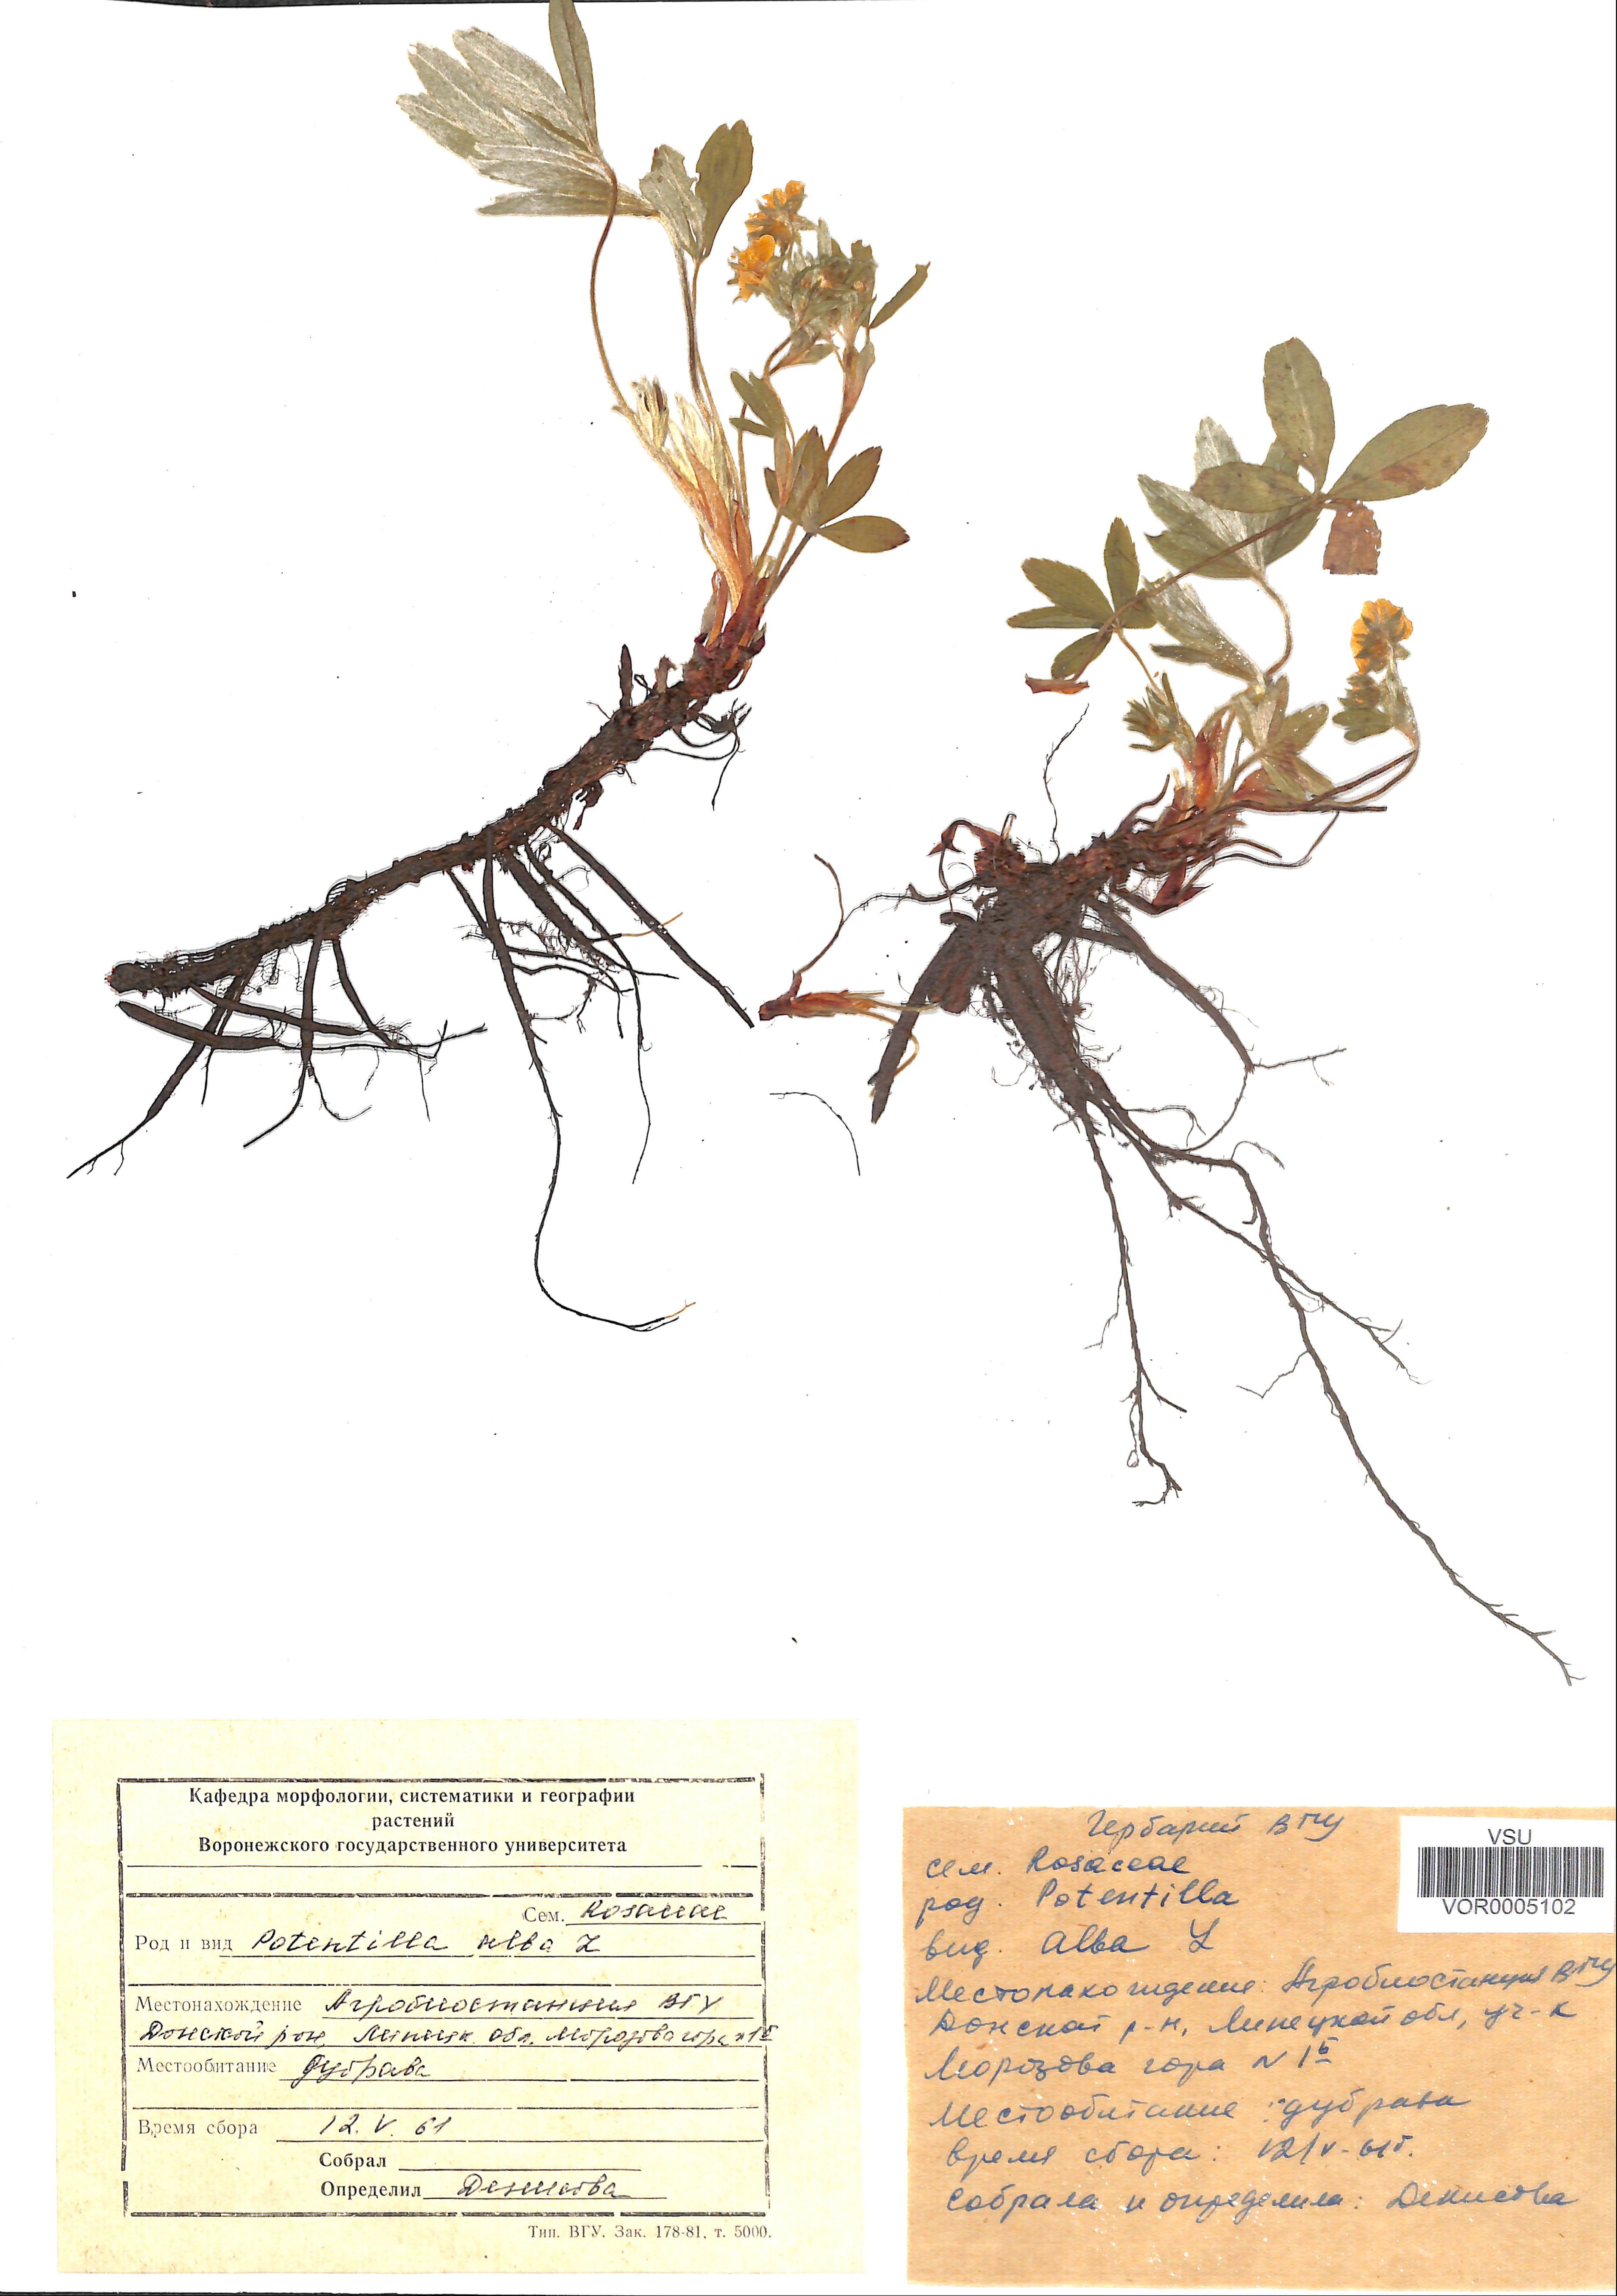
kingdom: Plantae
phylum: Tracheophyta
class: Magnoliopsida
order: Rosales
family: Rosaceae
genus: Potentilla
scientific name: Potentilla alba
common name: White cinquefoil
